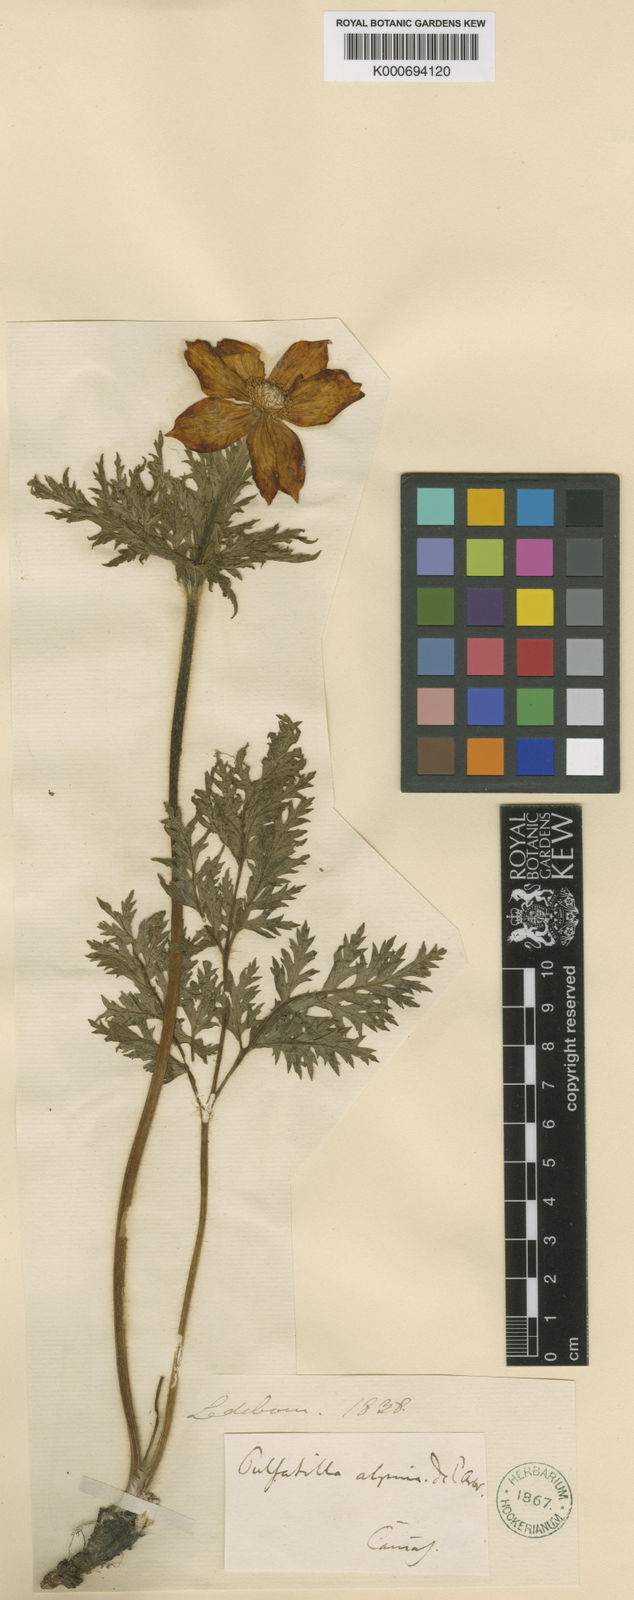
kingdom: Plantae
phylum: Tracheophyta
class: Magnoliopsida
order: Ranunculales
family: Ranunculaceae
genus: Pulsatilla
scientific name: Pulsatilla alpina
